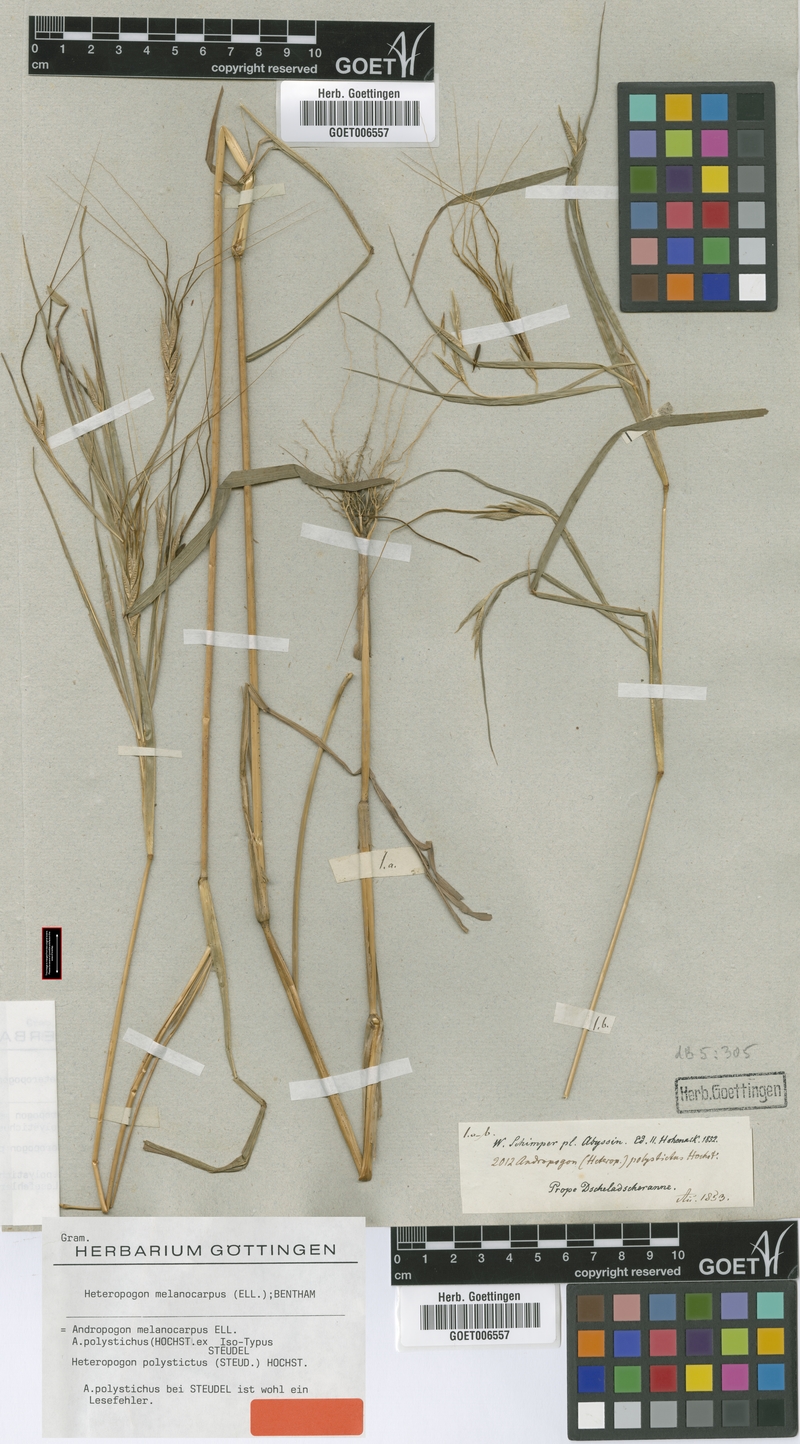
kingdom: Plantae
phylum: Tracheophyta
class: Liliopsida
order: Poales
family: Poaceae
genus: Heteropogon
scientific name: Heteropogon melanocarpus
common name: Sweet tanglehead
